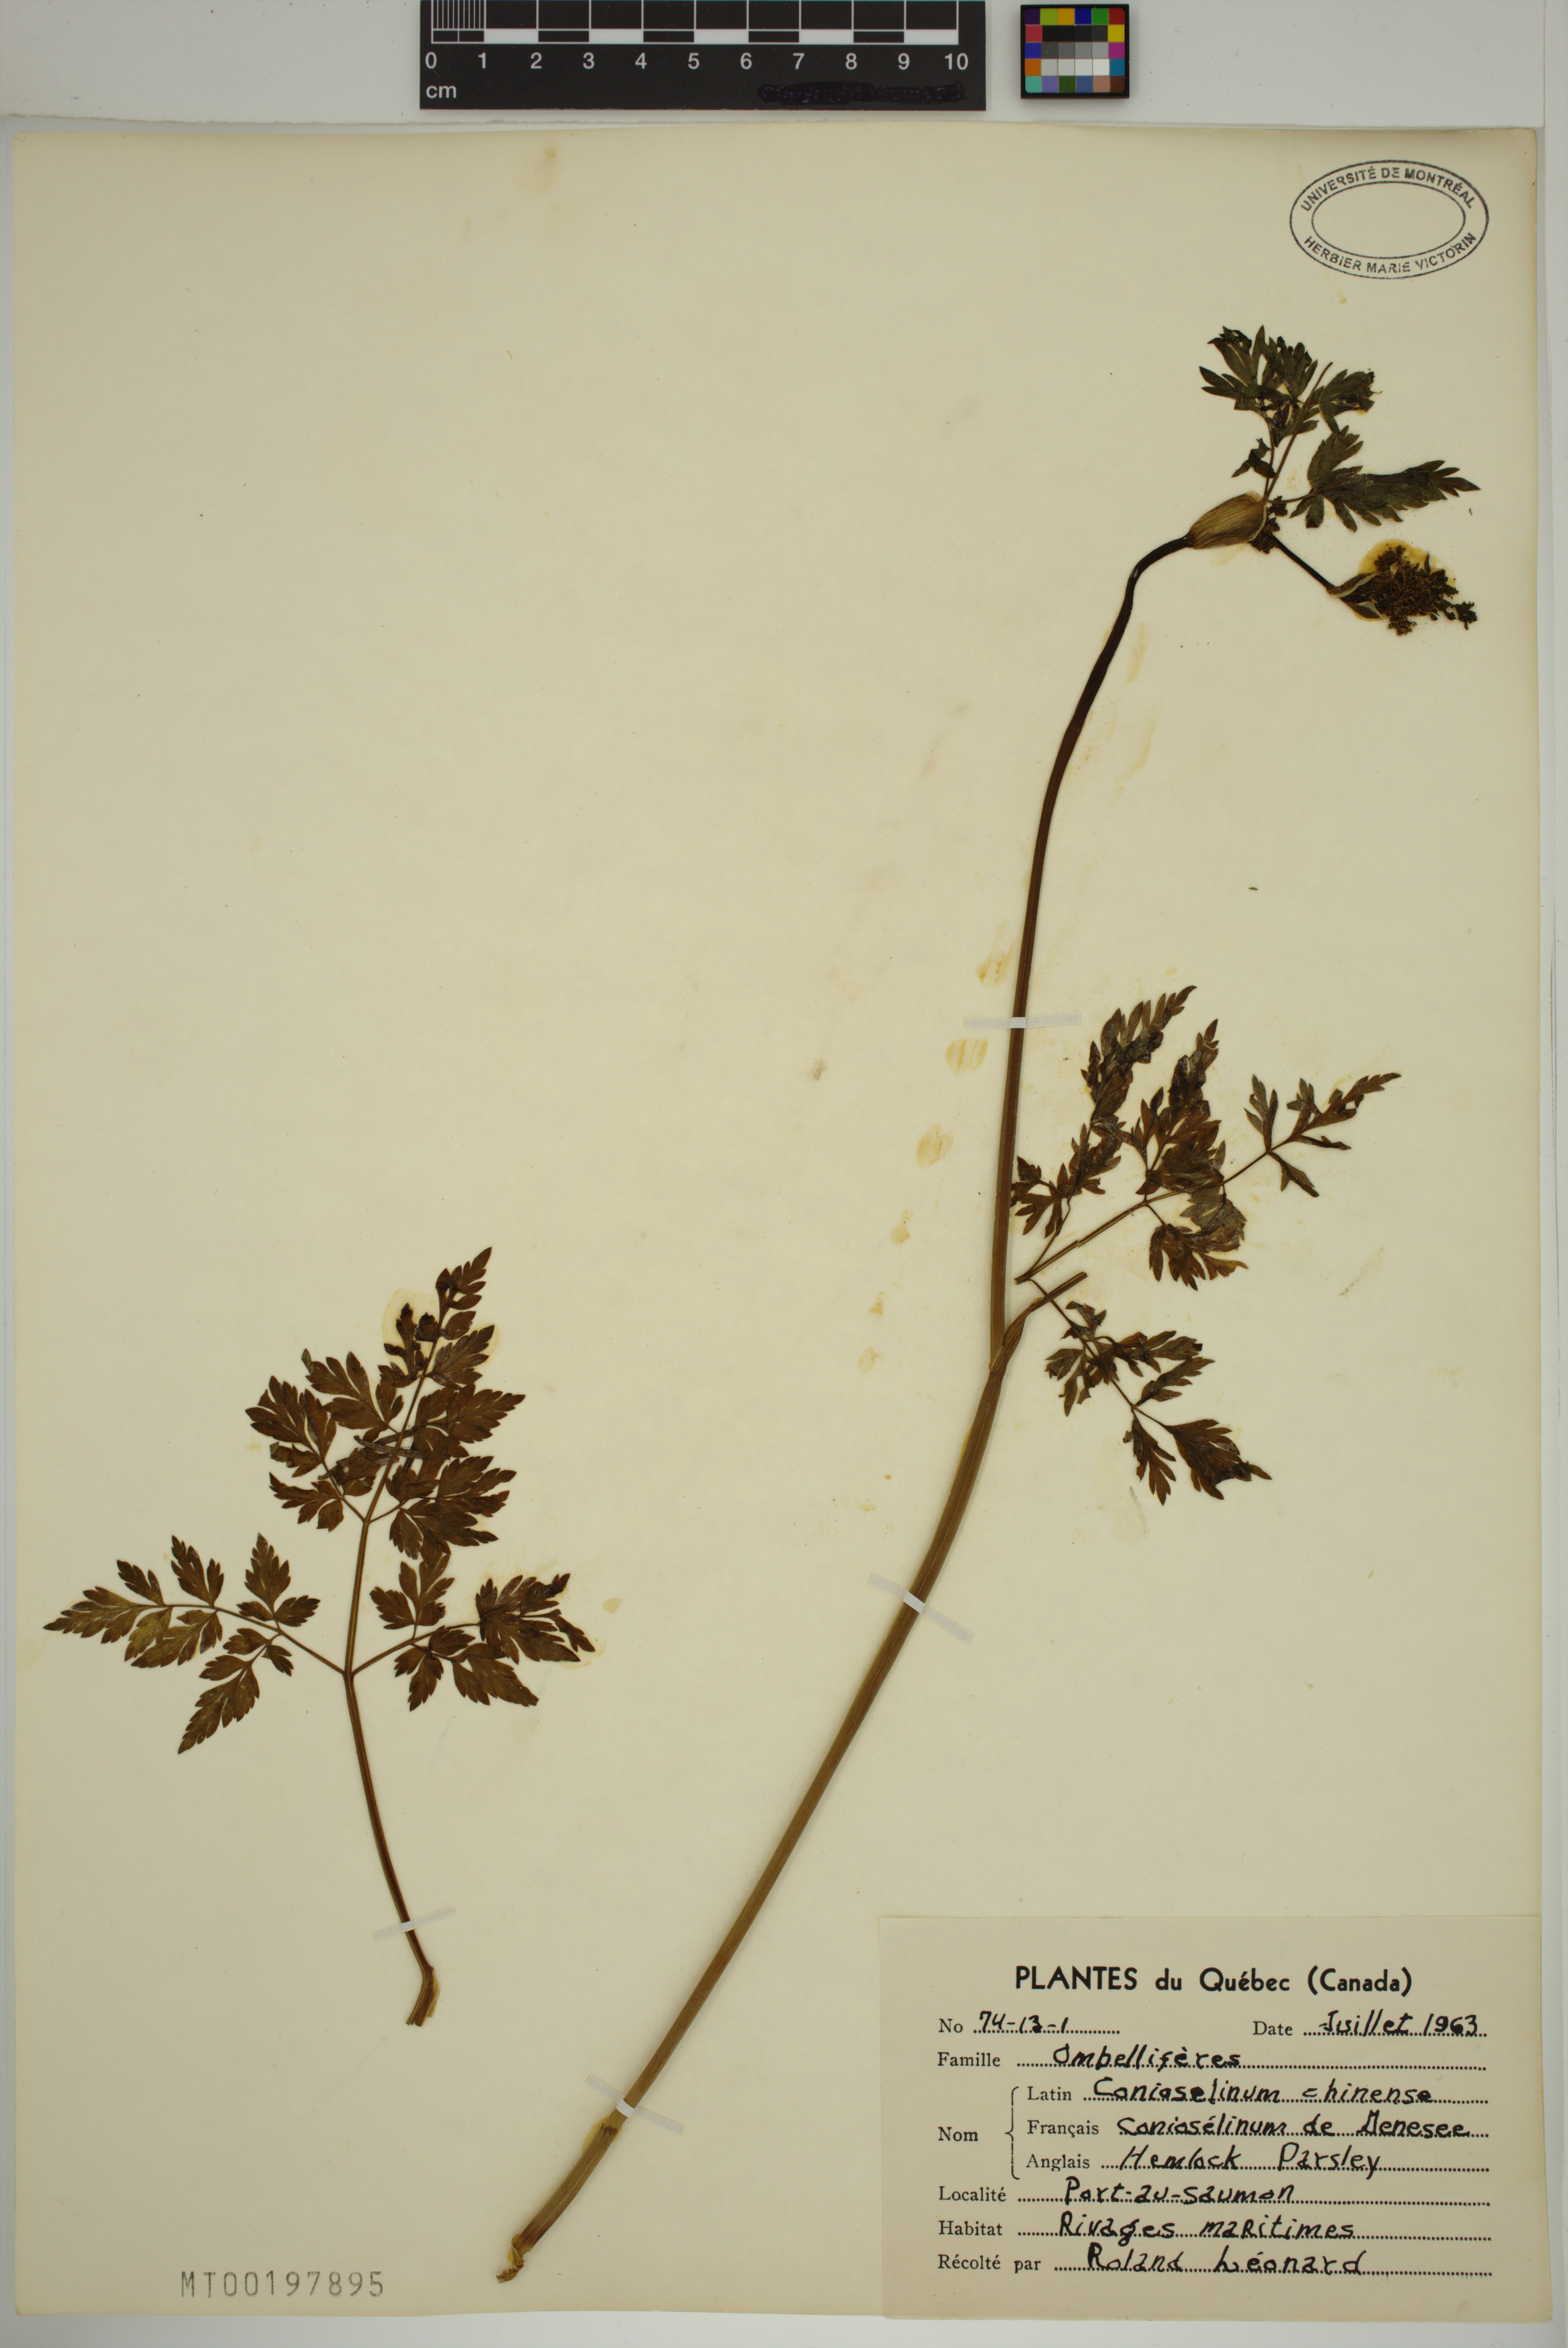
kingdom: Plantae
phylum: Tracheophyta
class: Magnoliopsida
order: Apiales
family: Apiaceae
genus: Kreidion
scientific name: Kreidion chinensis
